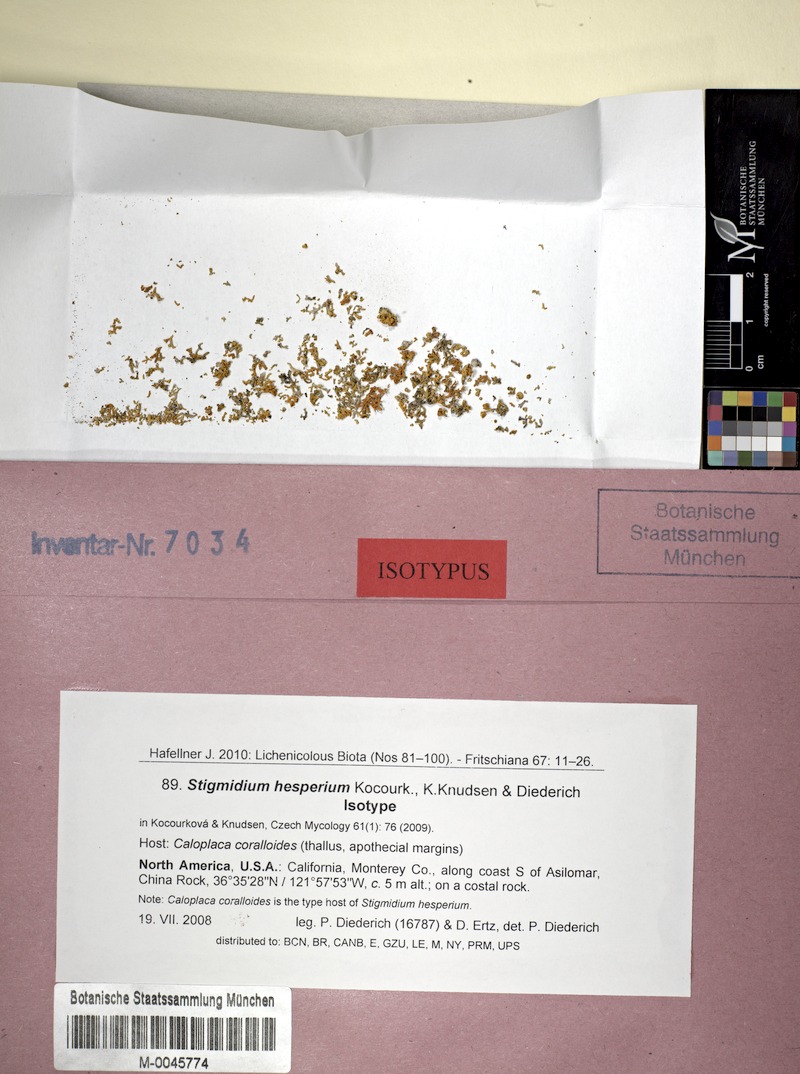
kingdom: Fungi
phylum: Ascomycota
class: Lecanoromycetes
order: Teloschistales
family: Teloschistaceae
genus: Polycauliona
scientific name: Polycauliona coralloides
